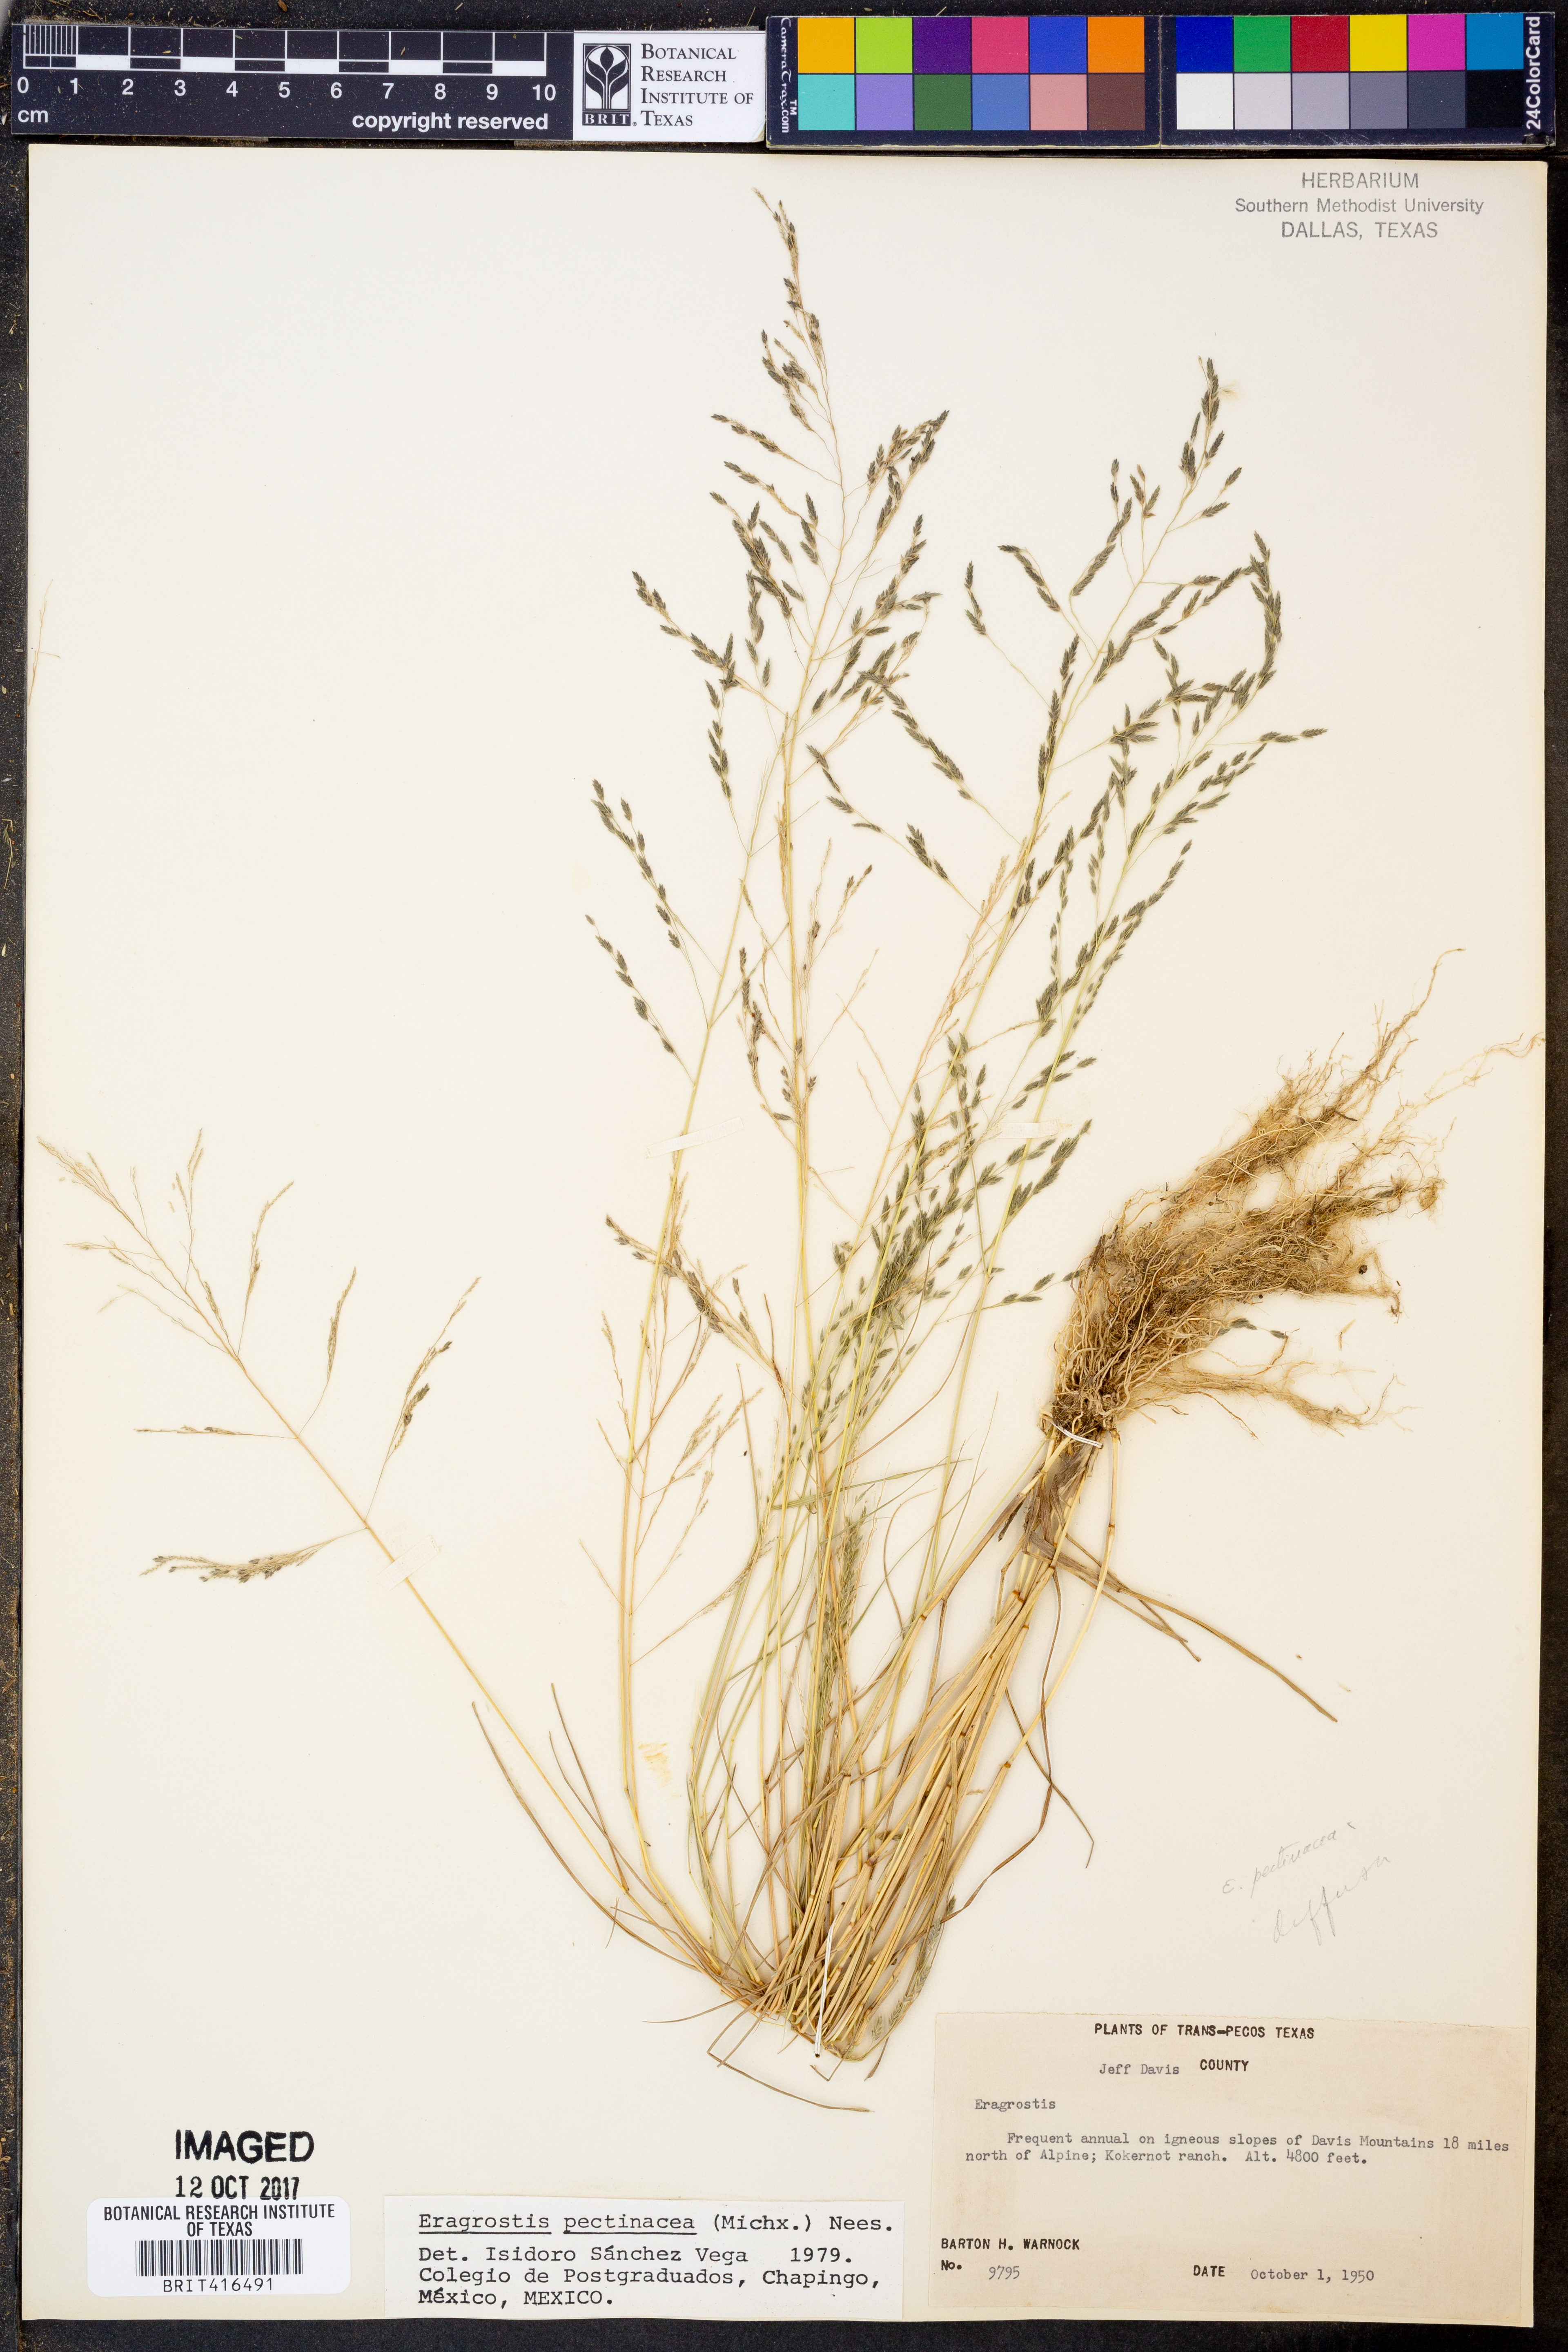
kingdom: Plantae
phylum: Tracheophyta
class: Liliopsida
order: Poales
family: Poaceae
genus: Eragrostis
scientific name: Eragrostis pectinacea
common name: Tufted lovegrass
